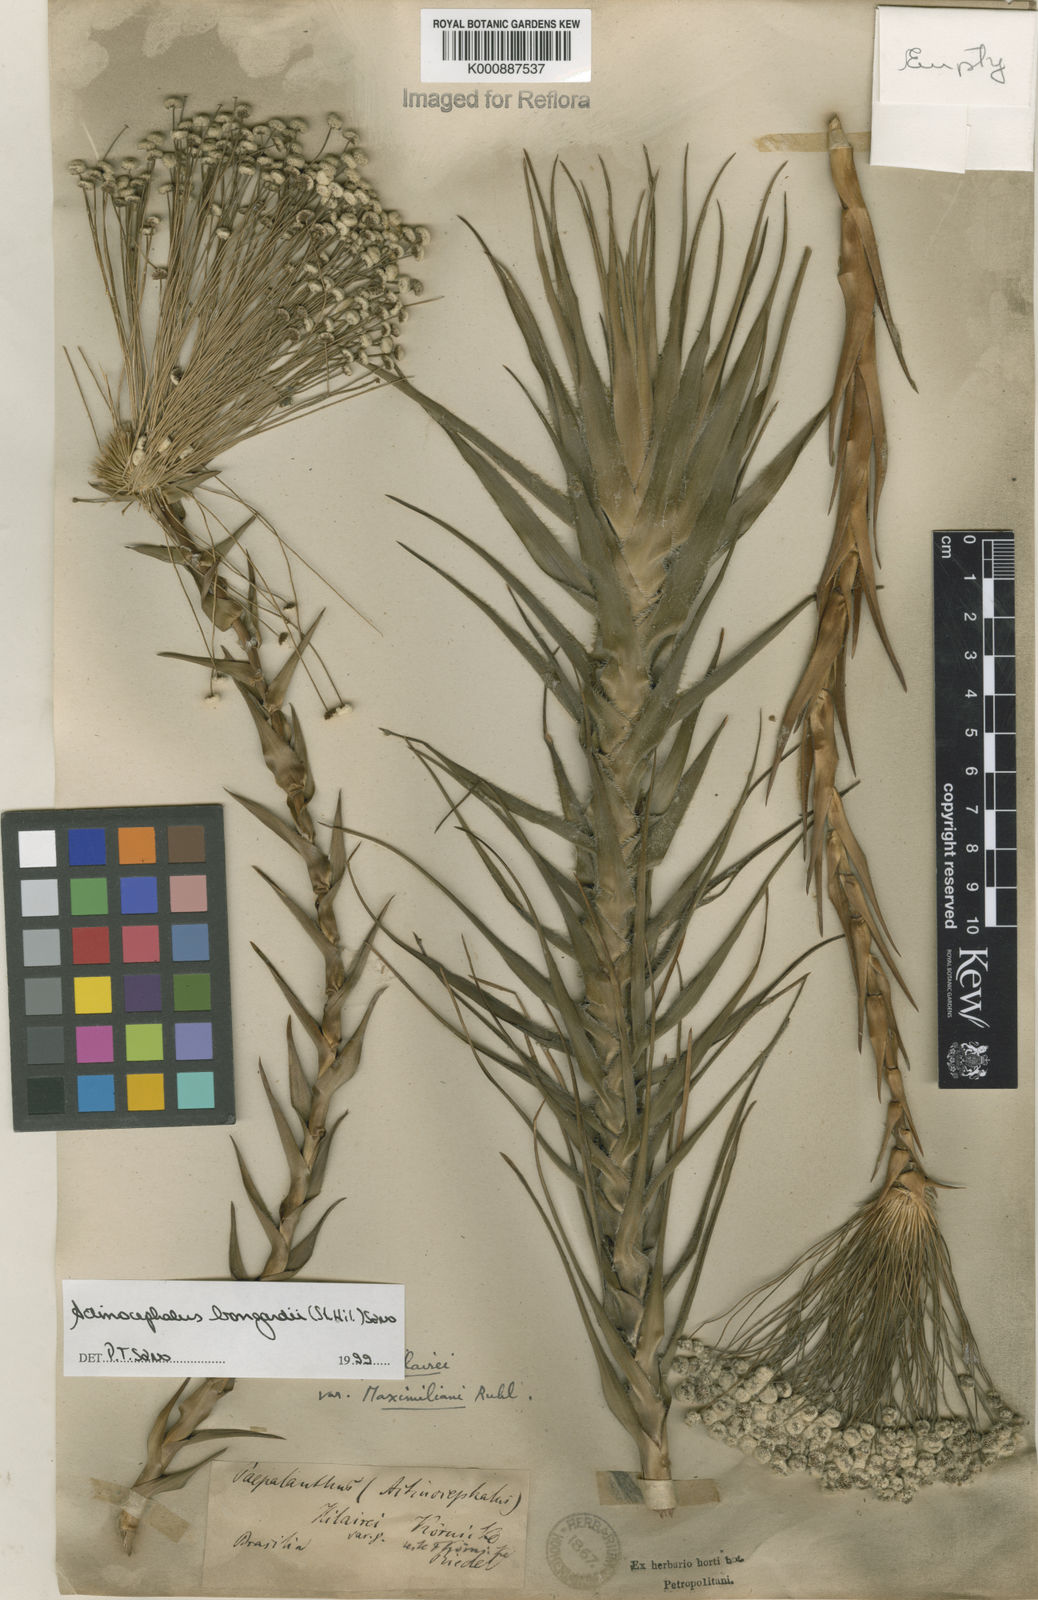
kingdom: Plantae
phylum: Tracheophyta
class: Liliopsida
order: Poales
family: Eriocaulaceae
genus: Paepalanthus
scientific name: Paepalanthus hilairei
